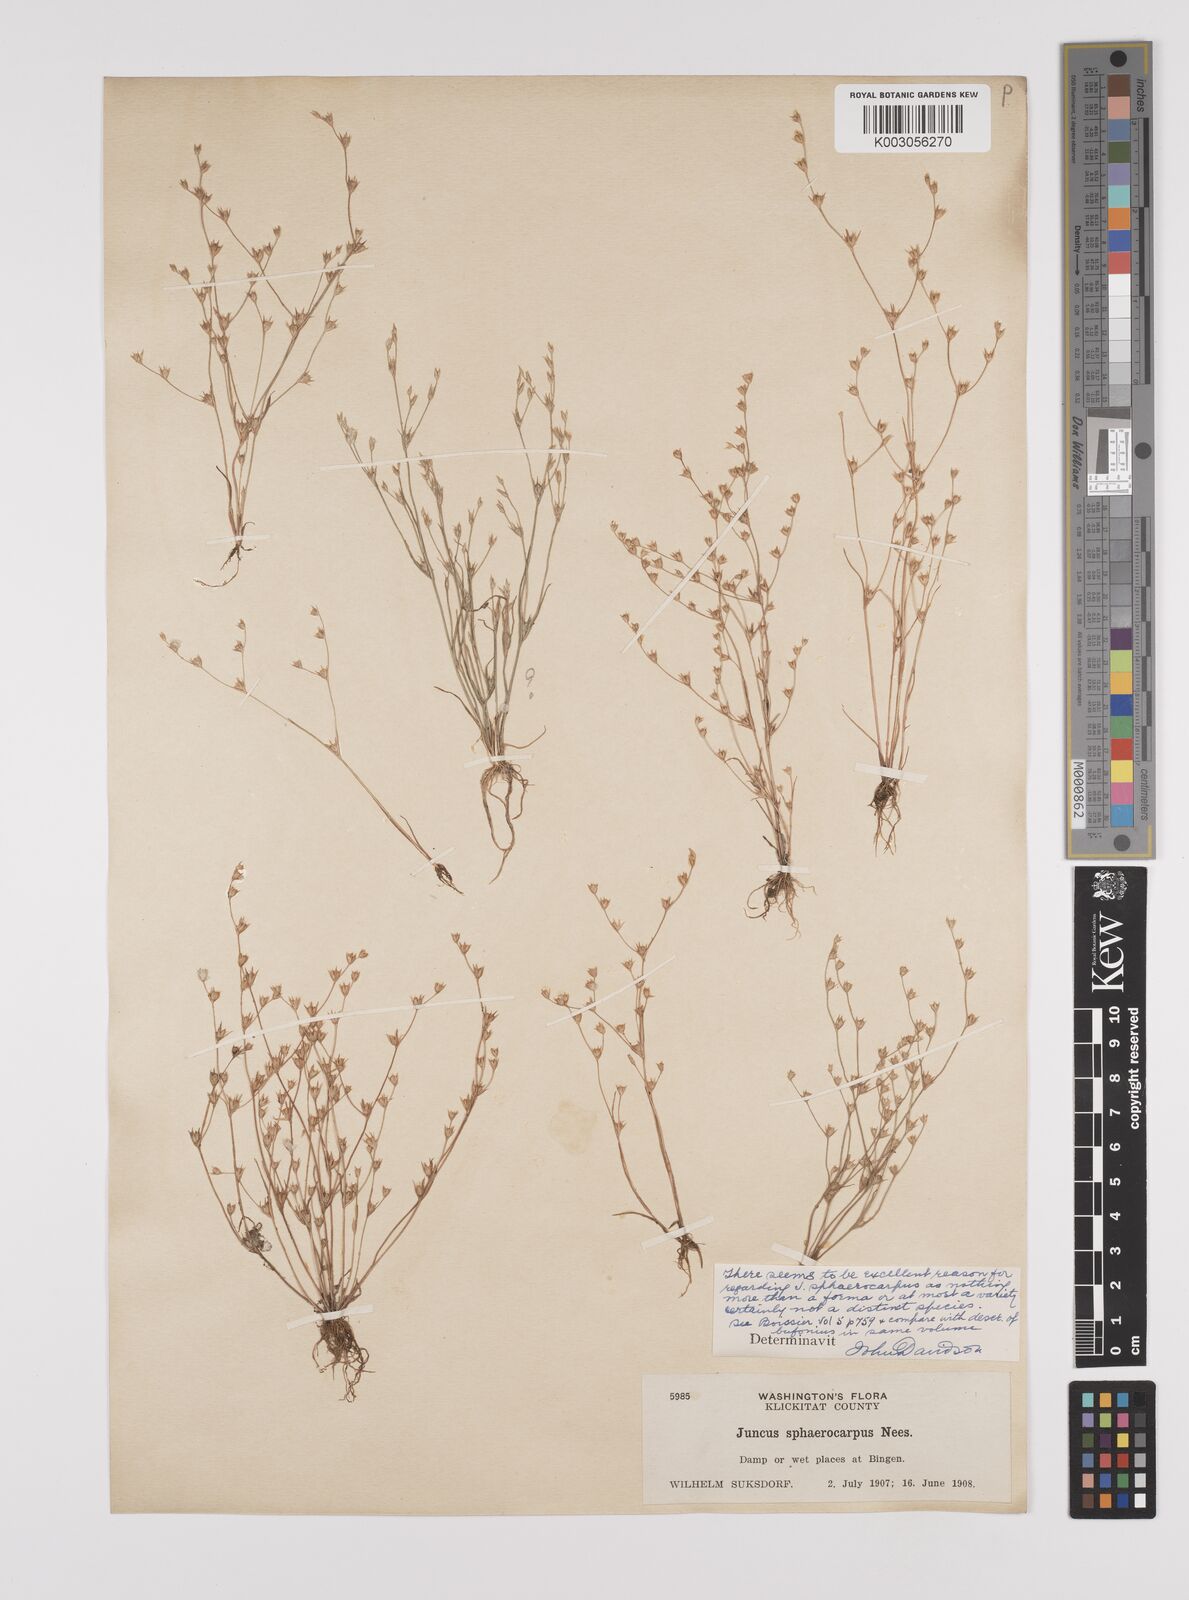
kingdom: Plantae
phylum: Tracheophyta
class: Liliopsida
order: Poales
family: Juncaceae
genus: Juncus
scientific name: Juncus sphaerocarpus
